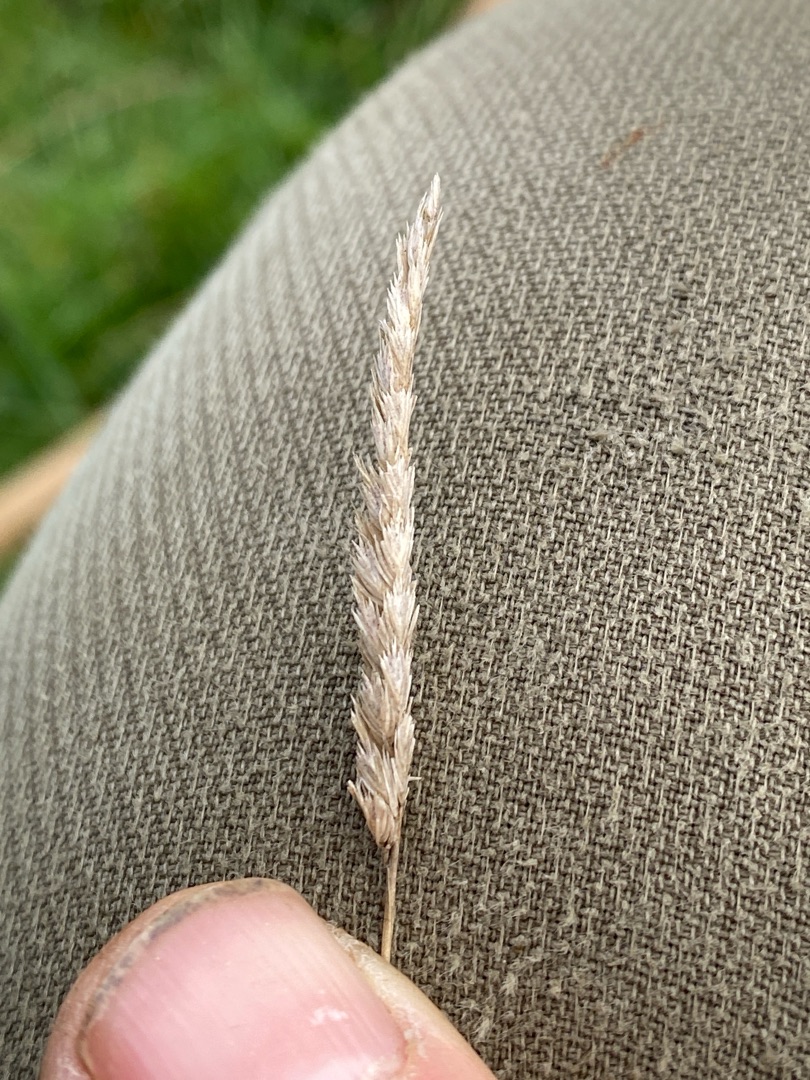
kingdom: Plantae
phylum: Tracheophyta
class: Liliopsida
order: Poales
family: Poaceae
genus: Cynosurus
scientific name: Cynosurus cristatus
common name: Kamgræs
